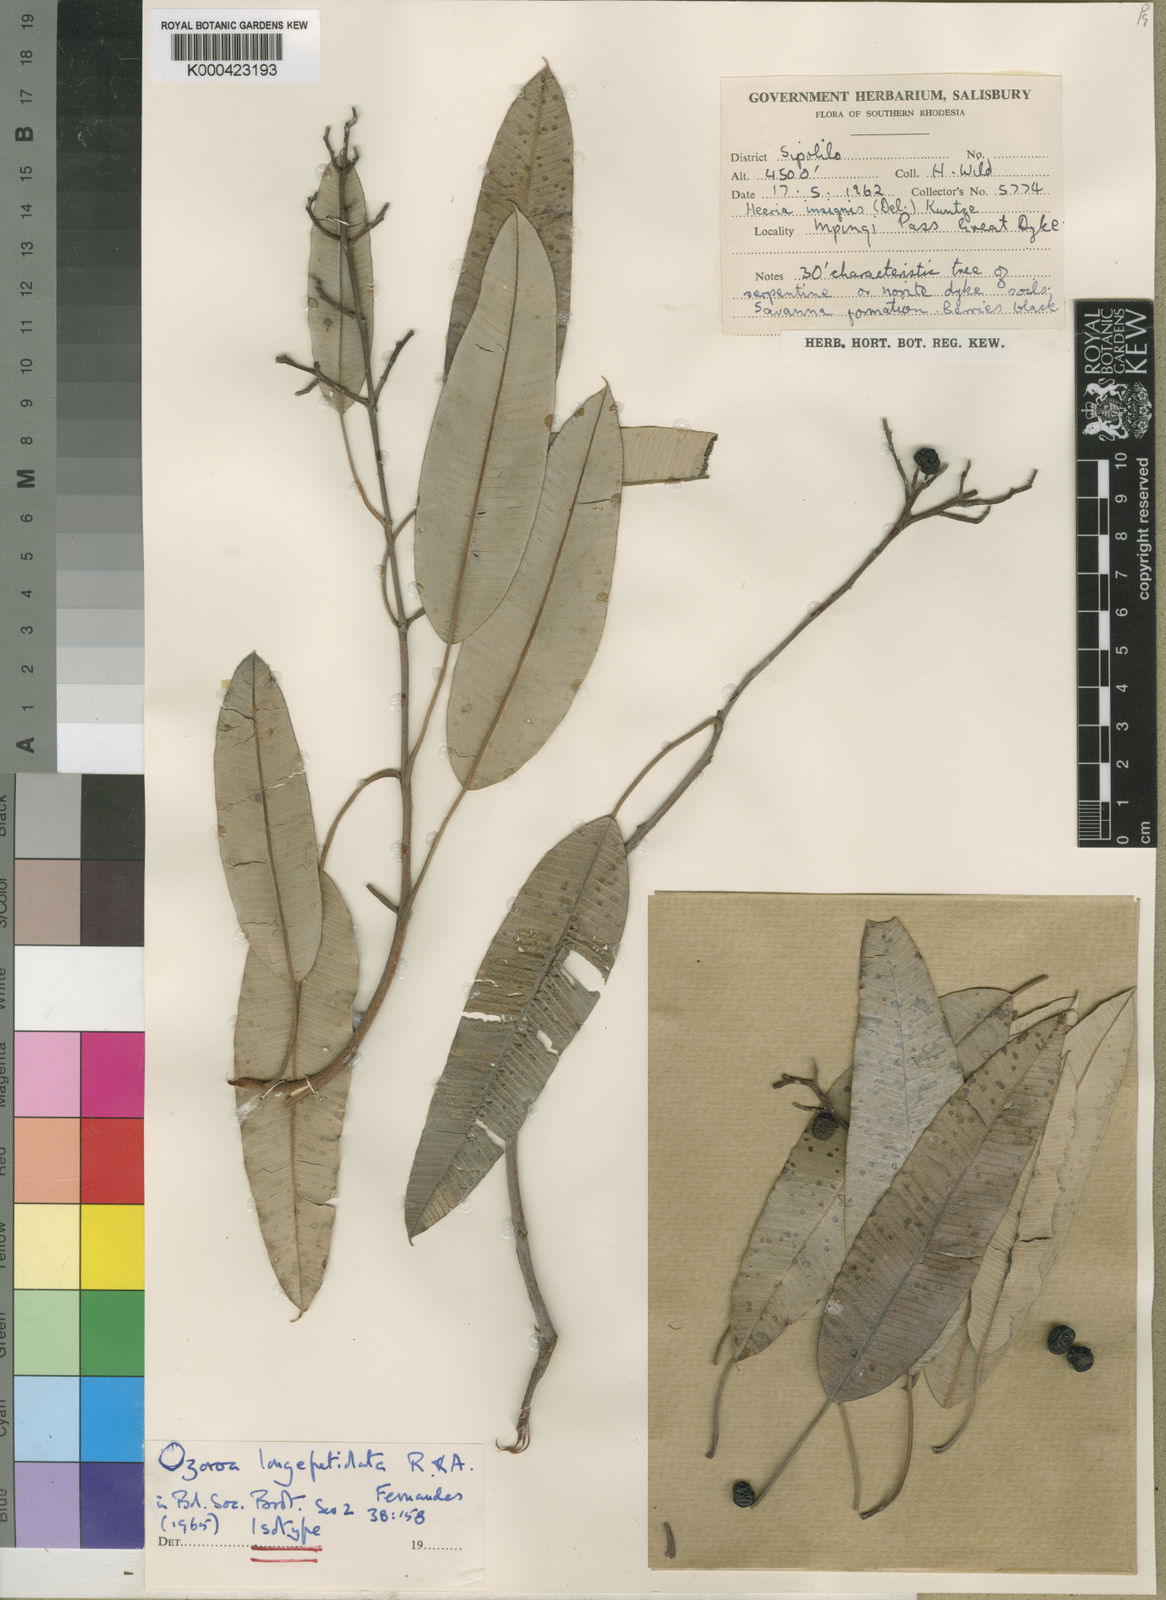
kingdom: Plantae
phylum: Tracheophyta
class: Magnoliopsida
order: Sapindales
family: Anacardiaceae
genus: Ozoroa
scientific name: Ozoroa
